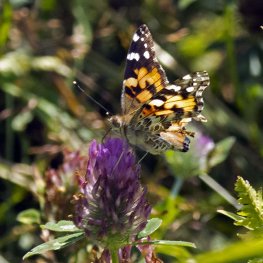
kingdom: Animalia
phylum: Arthropoda
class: Insecta
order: Lepidoptera
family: Nymphalidae
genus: Vanessa
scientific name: Vanessa cardui
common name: Painted Lady
